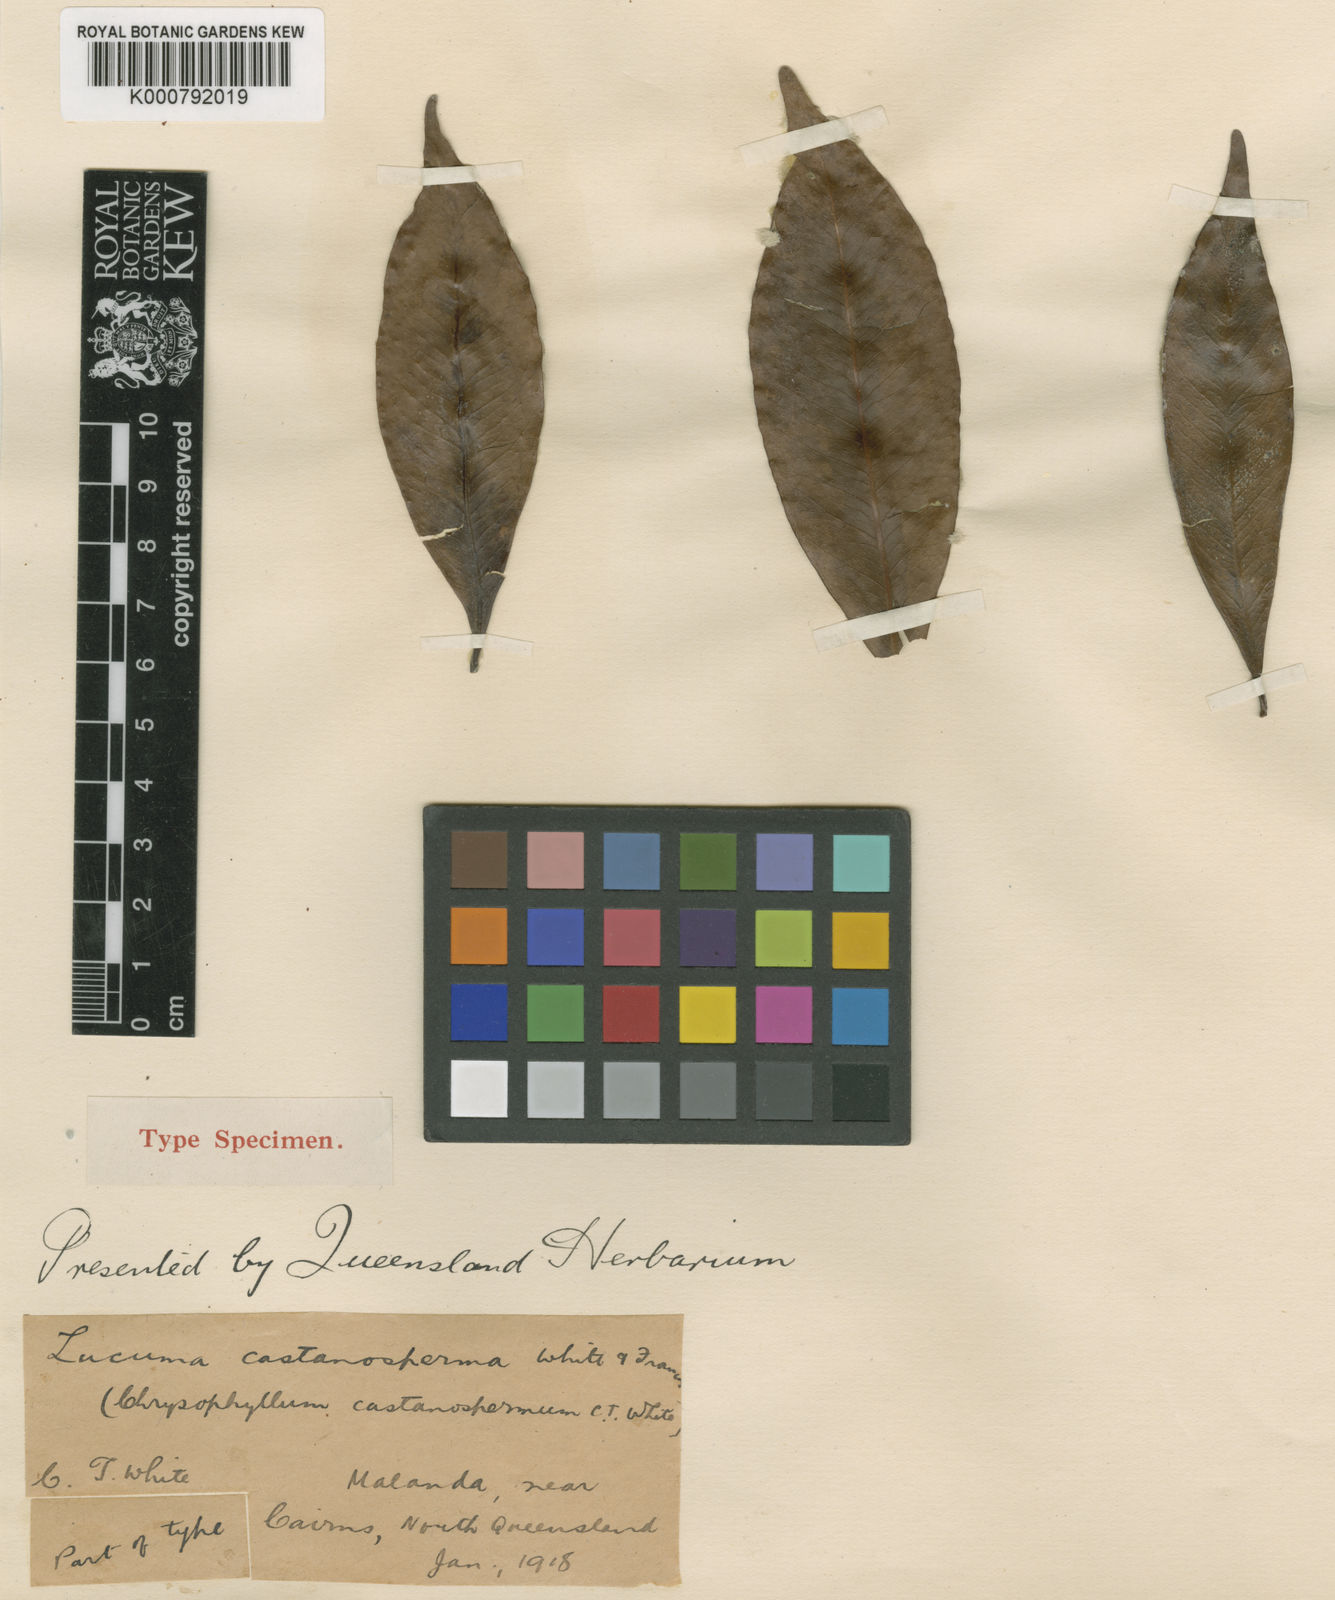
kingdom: Plantae
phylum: Tracheophyta
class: Magnoliopsida
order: Ericales
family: Sapotaceae
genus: Van-royena
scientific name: Van-royena castanosperma
